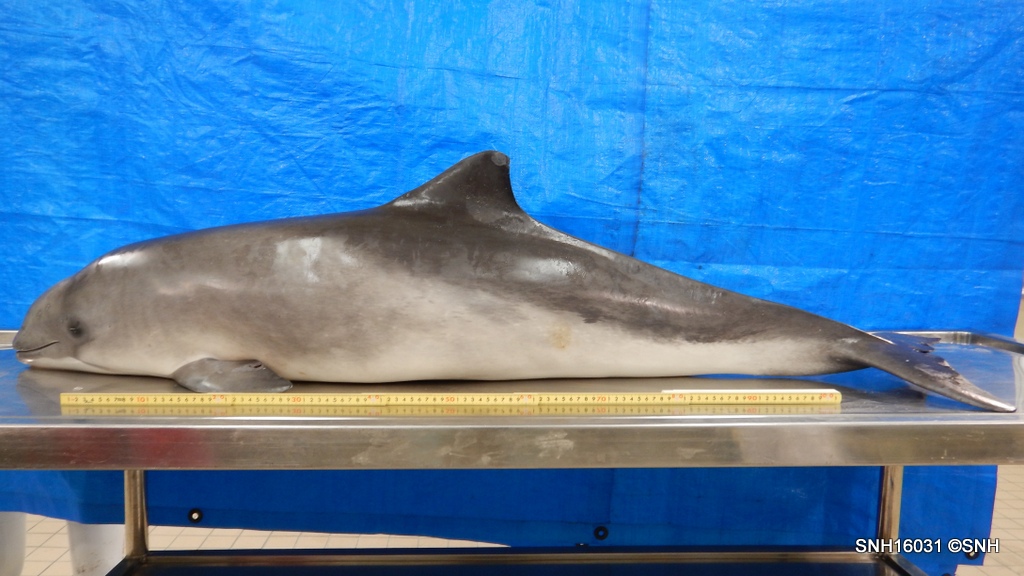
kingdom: Animalia
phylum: Chordata
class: Mammalia
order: Cetacea
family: Phocoenidae
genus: Phocoena
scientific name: Phocoena phocoena
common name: Harbour porpoise
